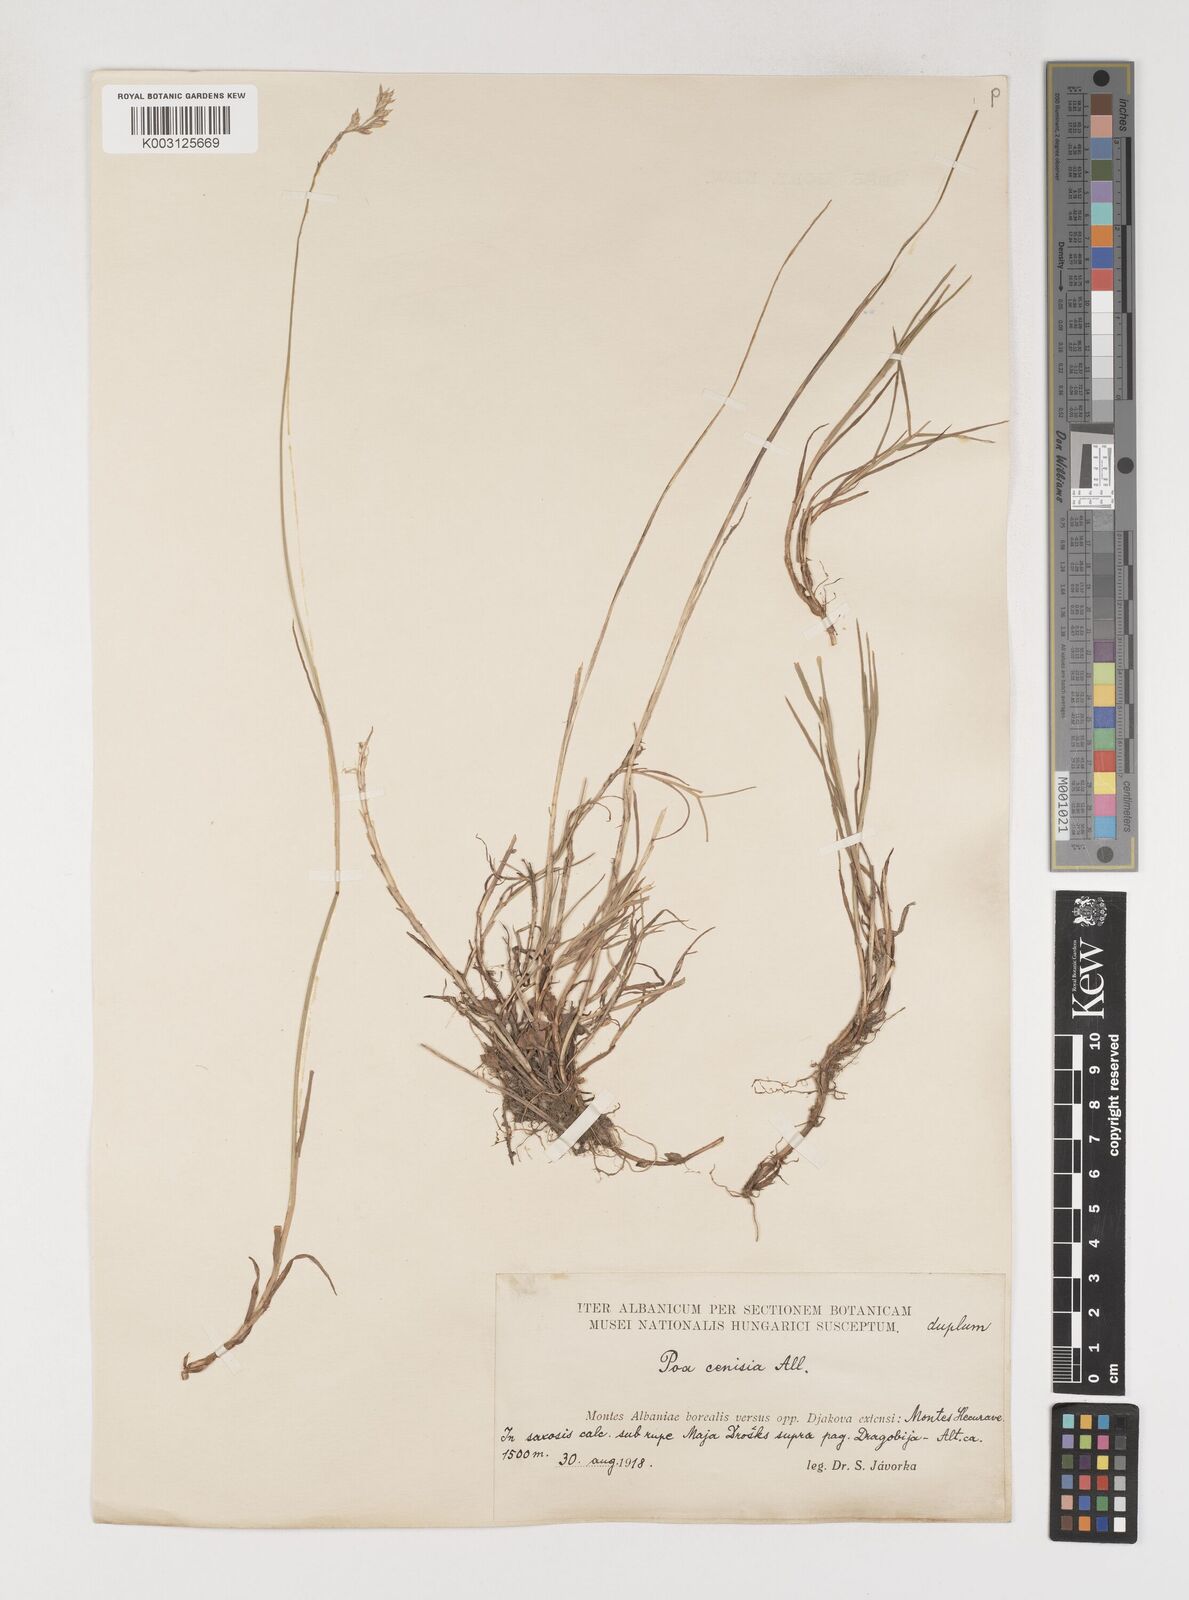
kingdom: Plantae
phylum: Tracheophyta
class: Liliopsida
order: Poales
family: Poaceae
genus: Poa
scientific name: Poa
